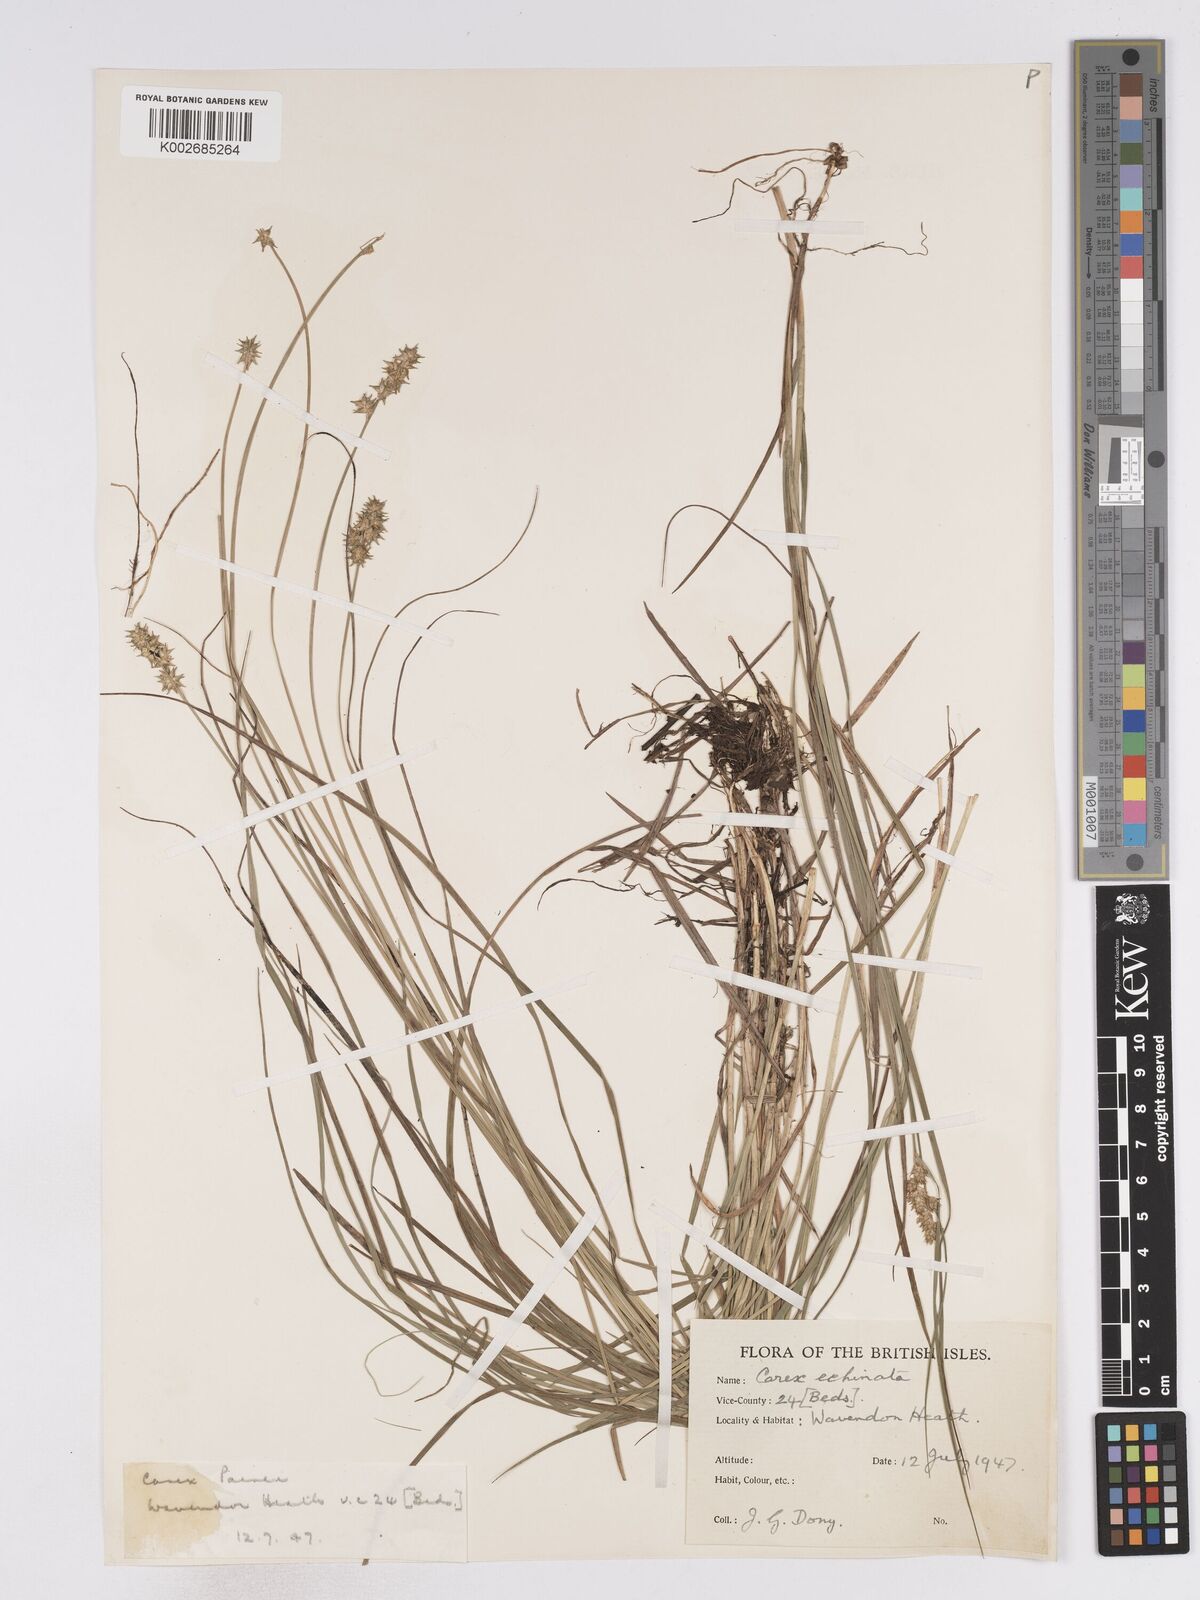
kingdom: Plantae
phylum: Tracheophyta
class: Liliopsida
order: Poales
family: Cyperaceae
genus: Carex
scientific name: Carex echinata
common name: Star sedge
